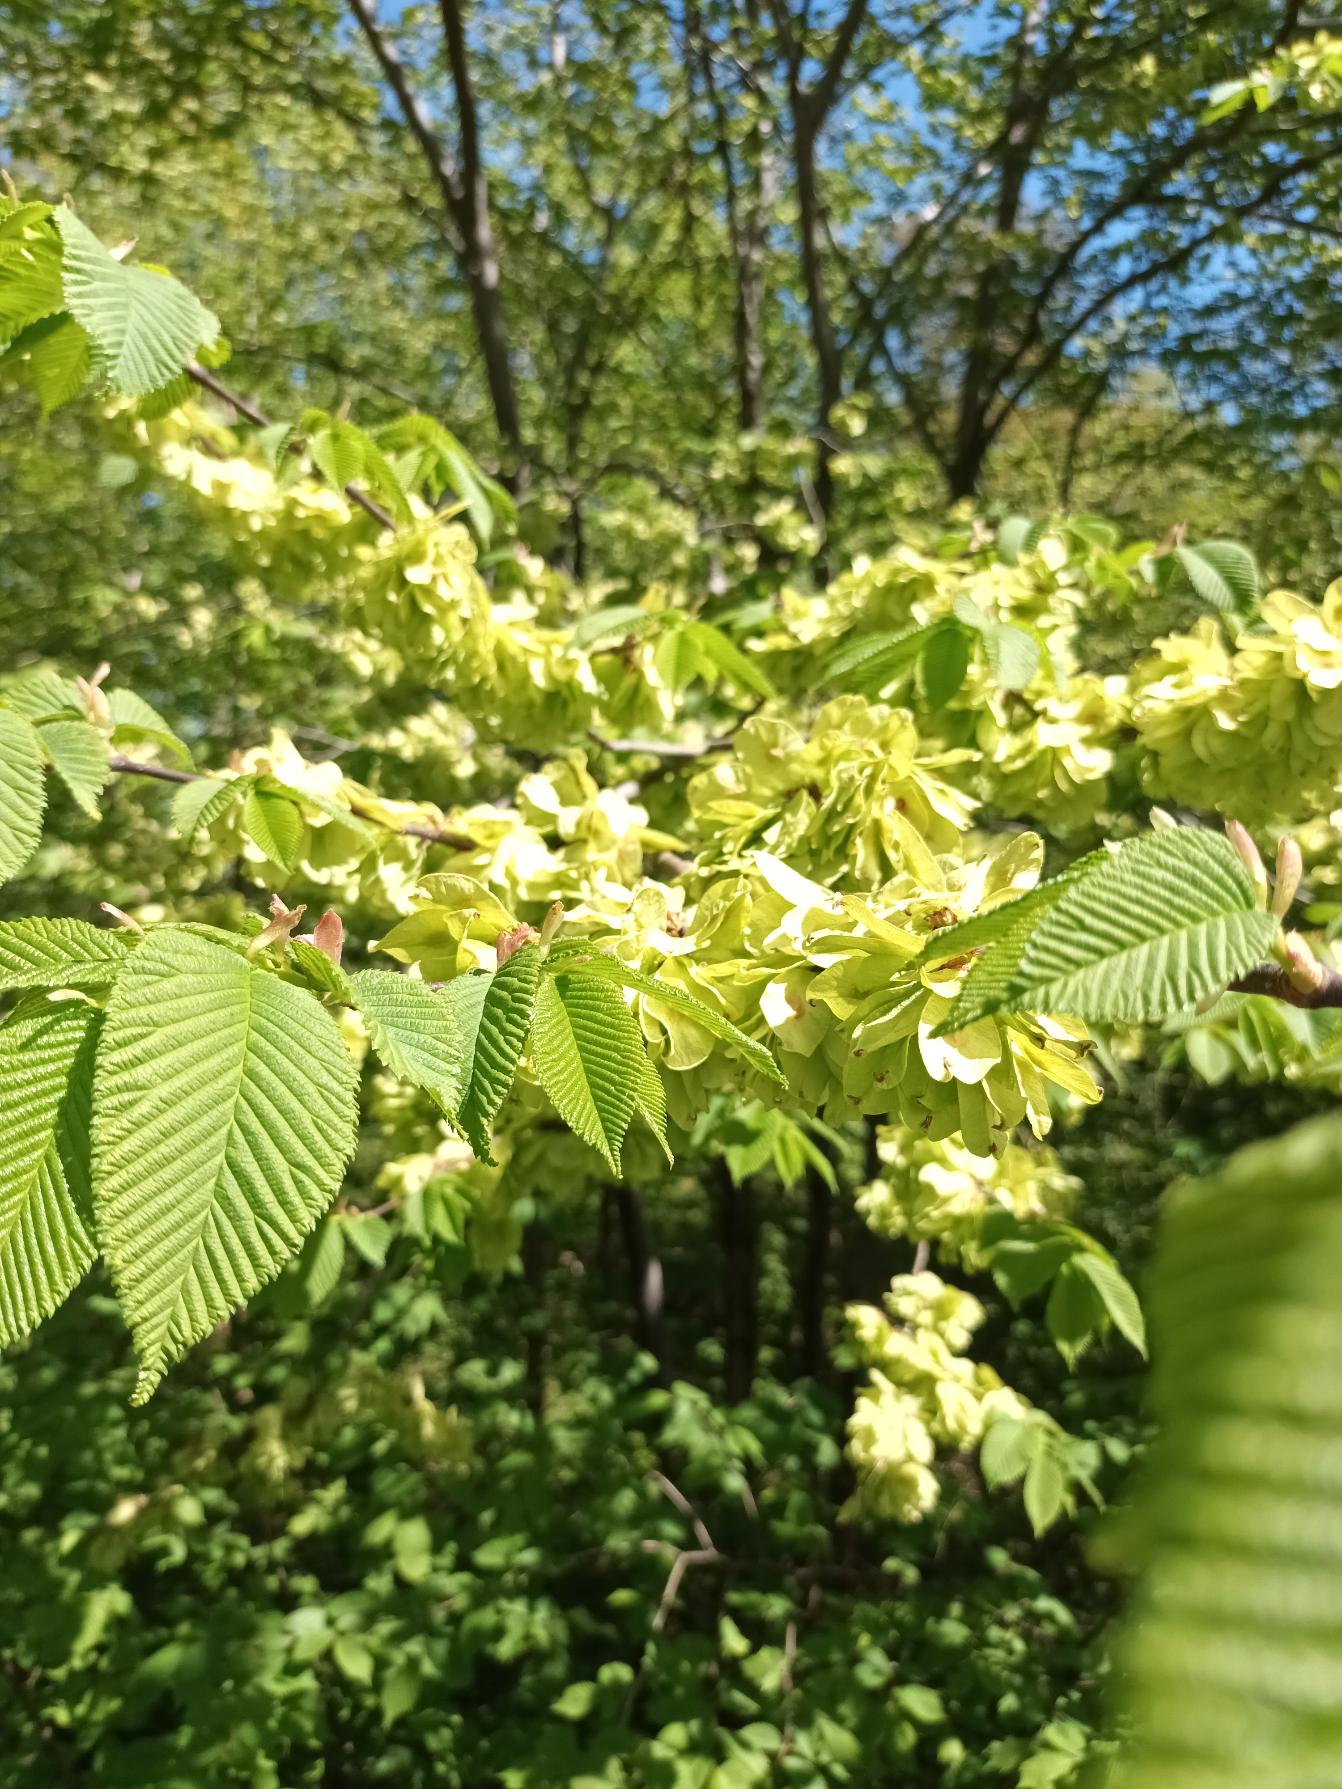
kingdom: Plantae
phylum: Tracheophyta
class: Magnoliopsida
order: Rosales
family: Ulmaceae
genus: Ulmus
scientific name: Ulmus glabra
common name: Skov-elm/storbladet elm
